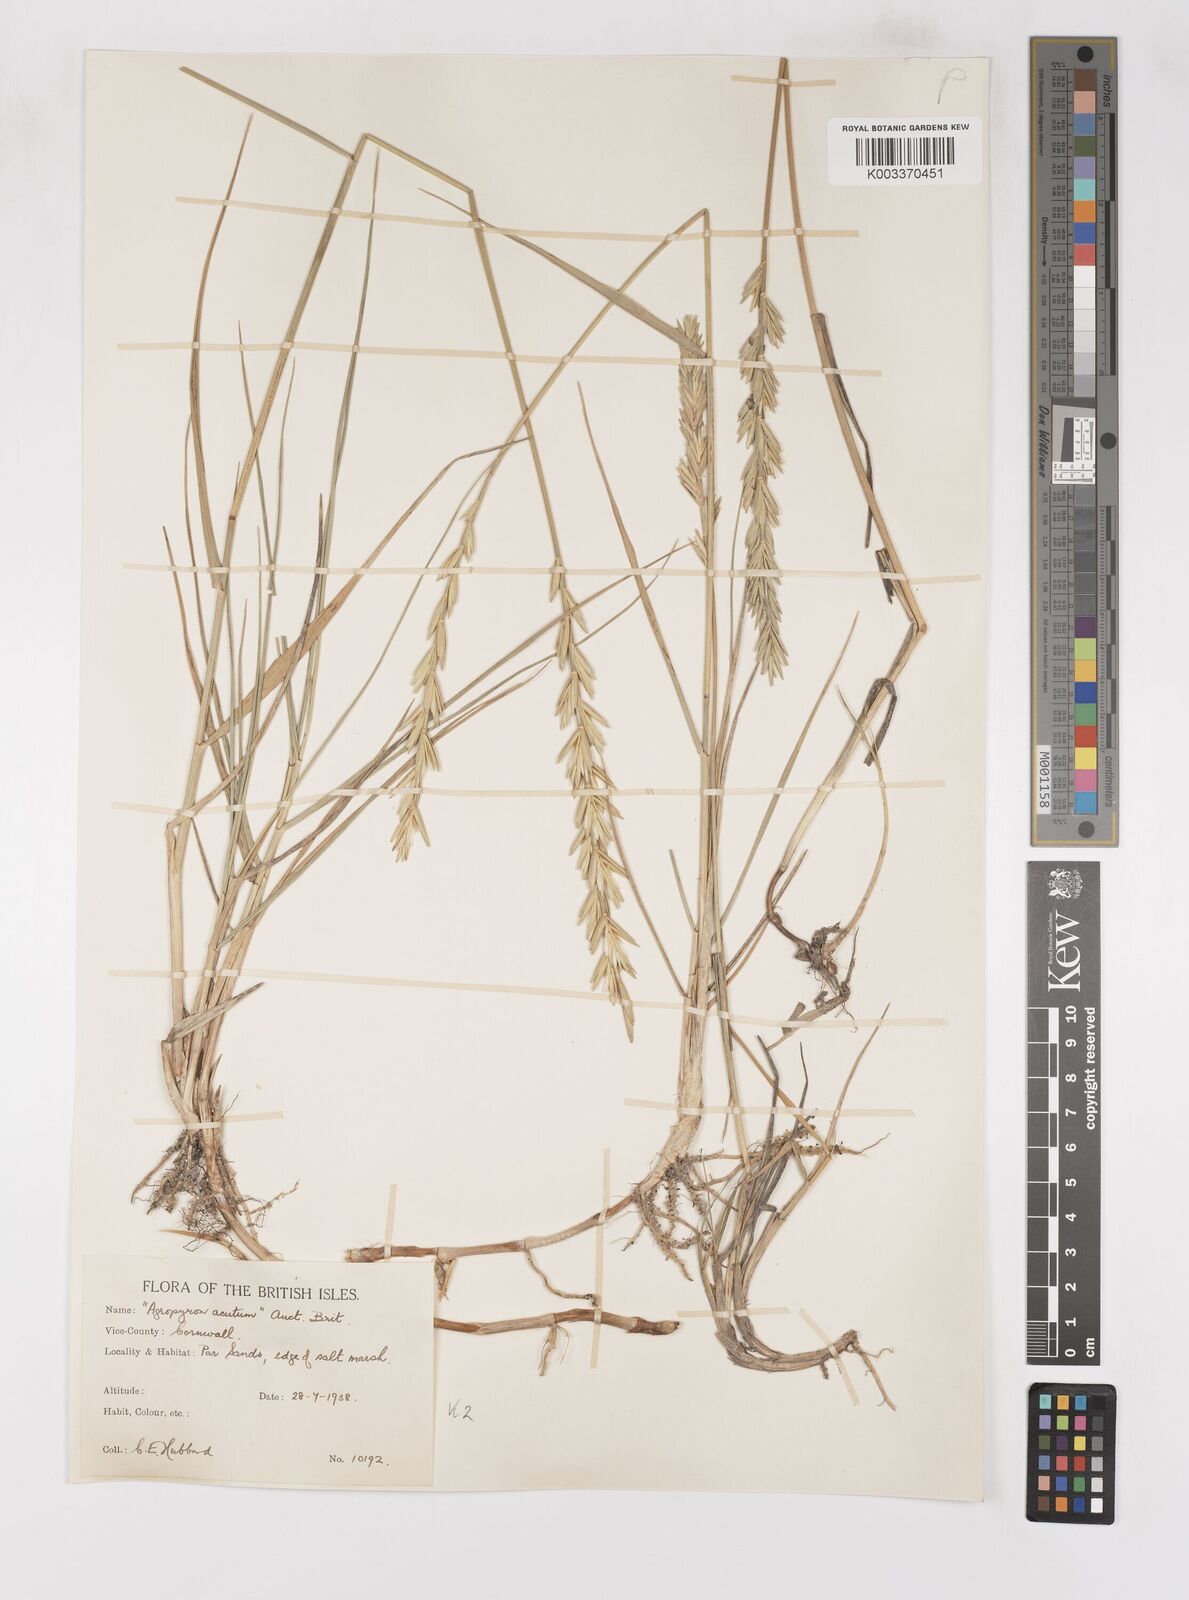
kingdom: Plantae
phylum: Tracheophyta
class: Liliopsida
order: Poales
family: Poaceae
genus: Thinoelymus
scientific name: Thinoelymus obtusiusculus
